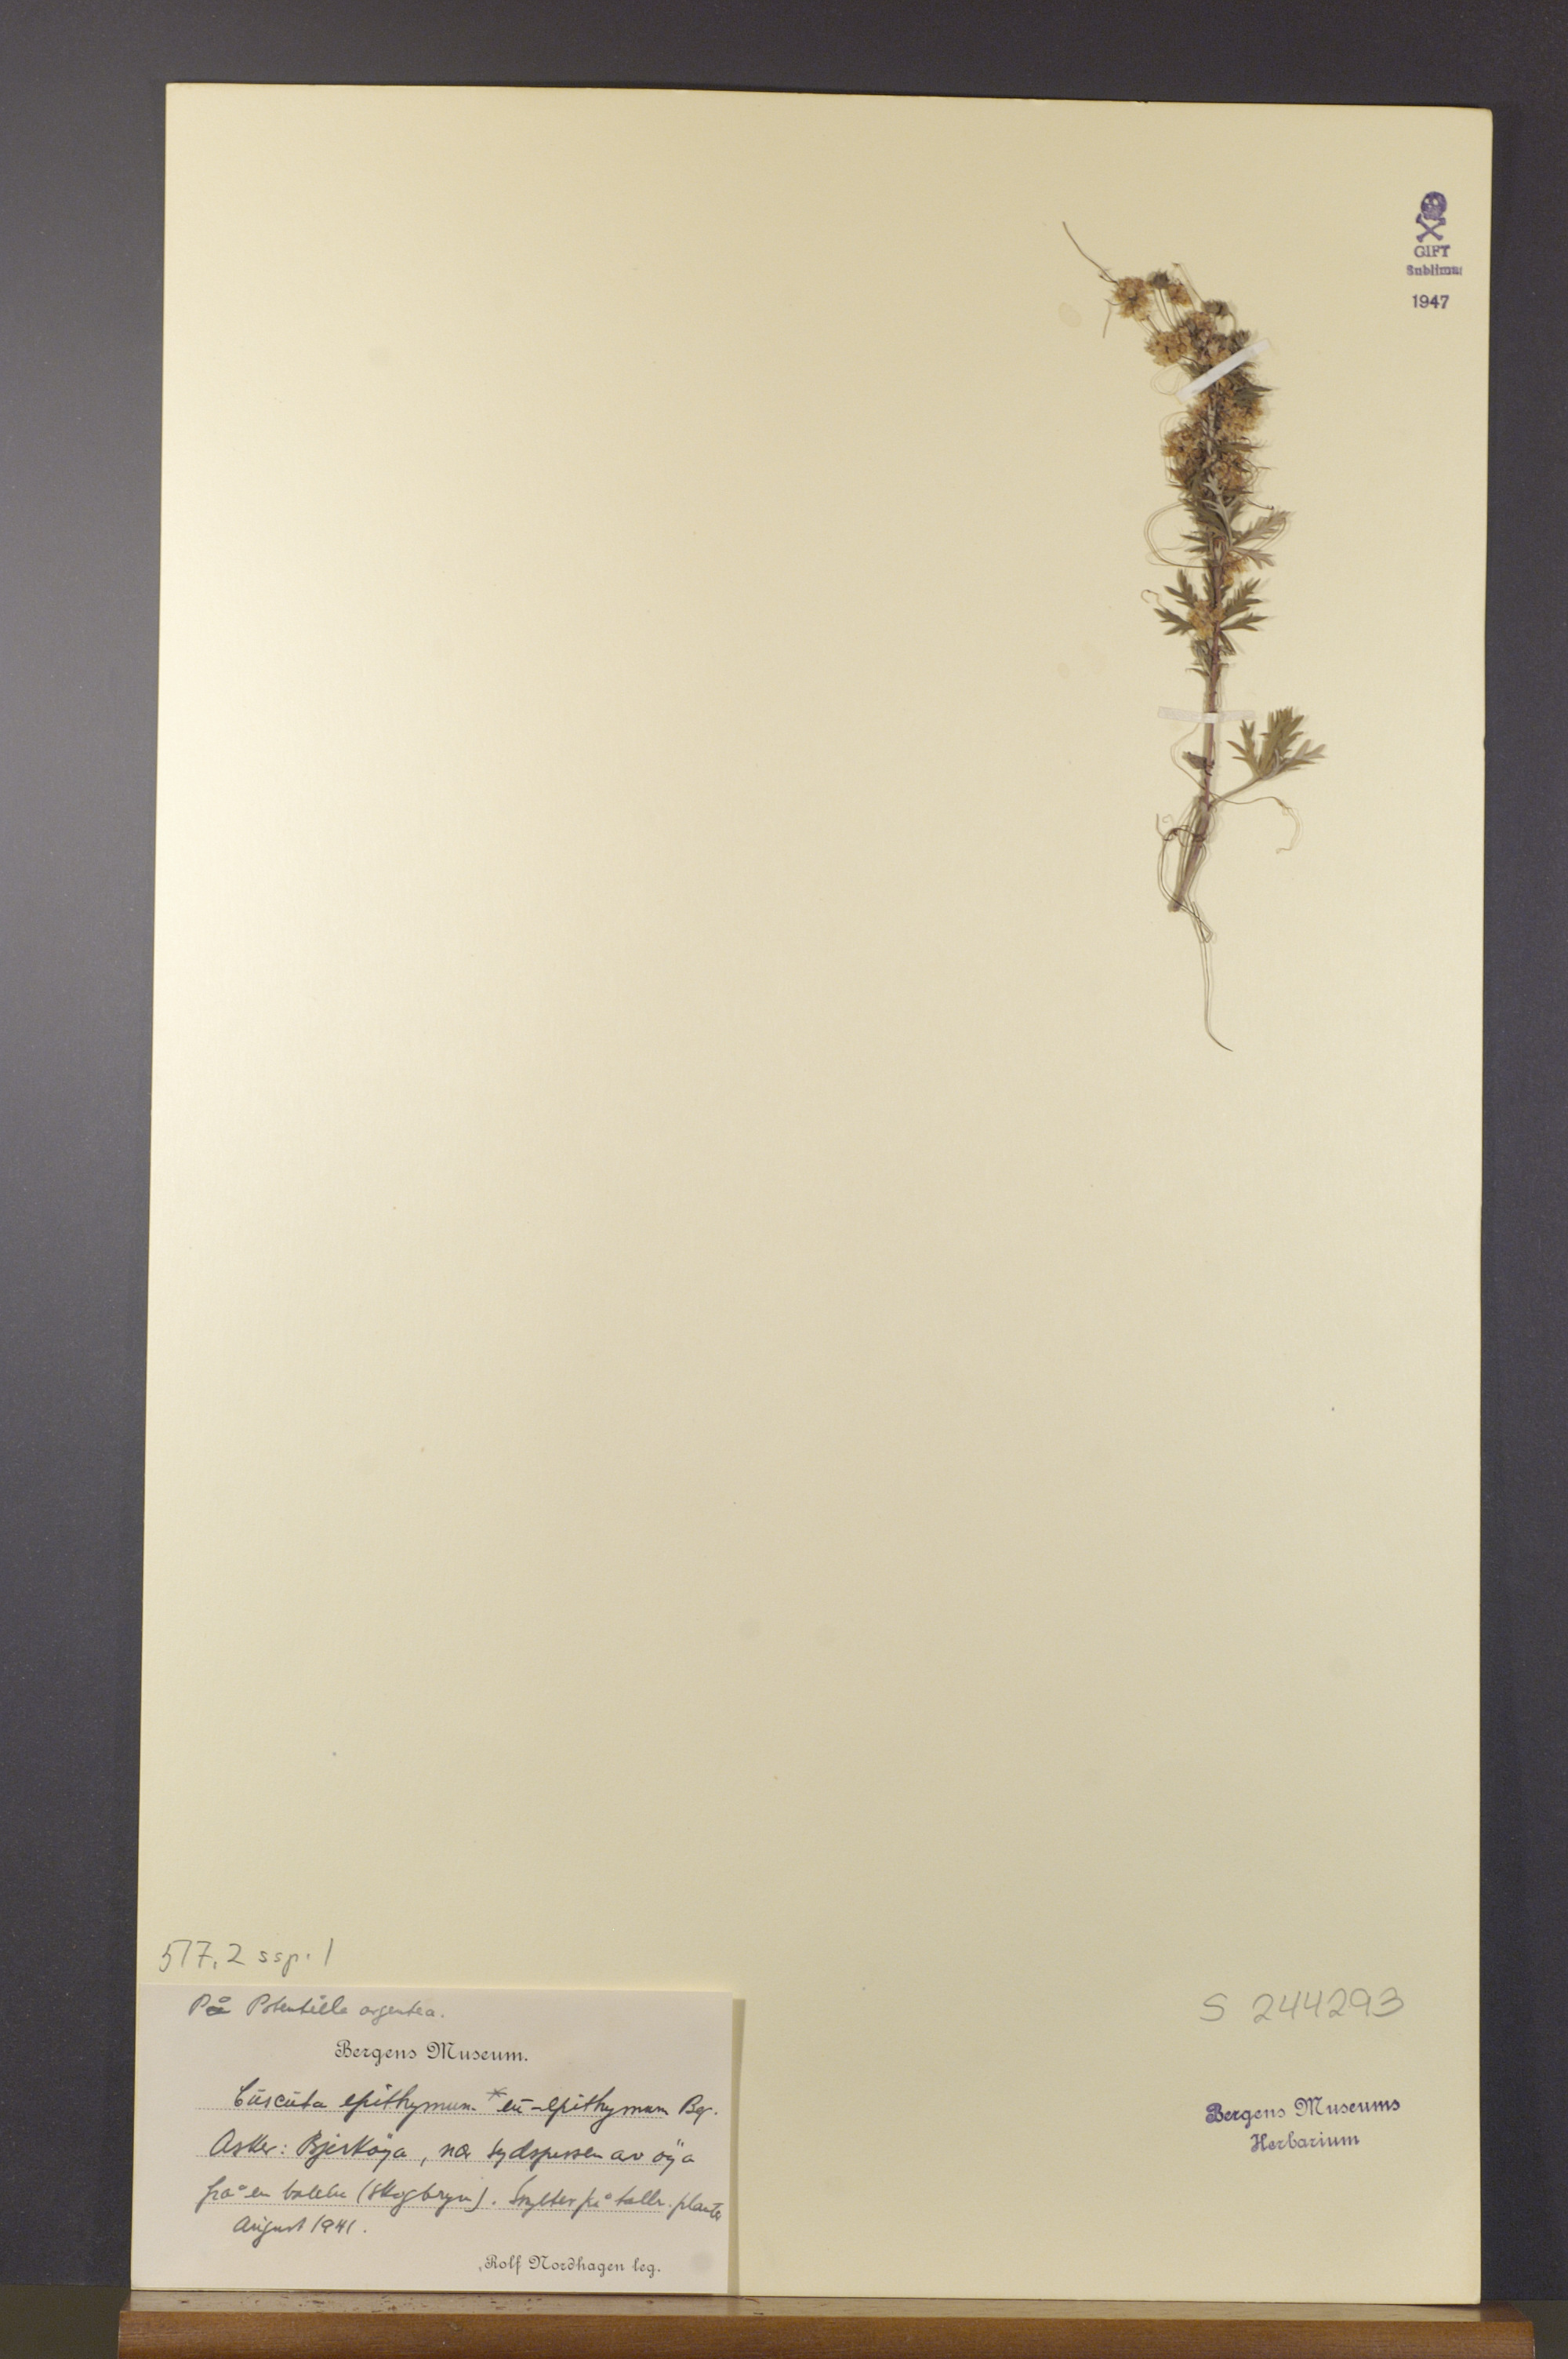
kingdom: Plantae
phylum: Tracheophyta
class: Magnoliopsida
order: Solanales
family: Convolvulaceae
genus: Cuscuta
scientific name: Cuscuta epithymum
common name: Clover dodder
